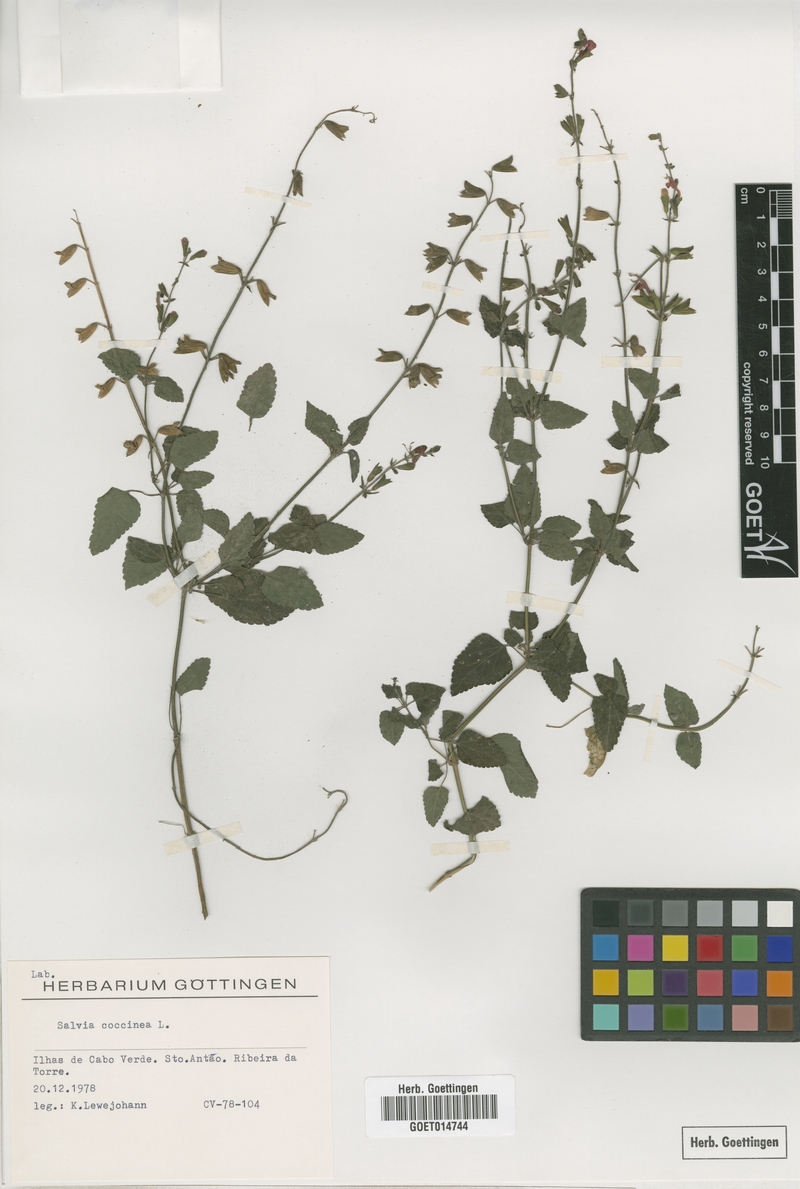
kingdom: Plantae
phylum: Tracheophyta
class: Magnoliopsida
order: Lamiales
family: Lamiaceae
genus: Salvia
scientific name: Salvia coccinea
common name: Blood sage
